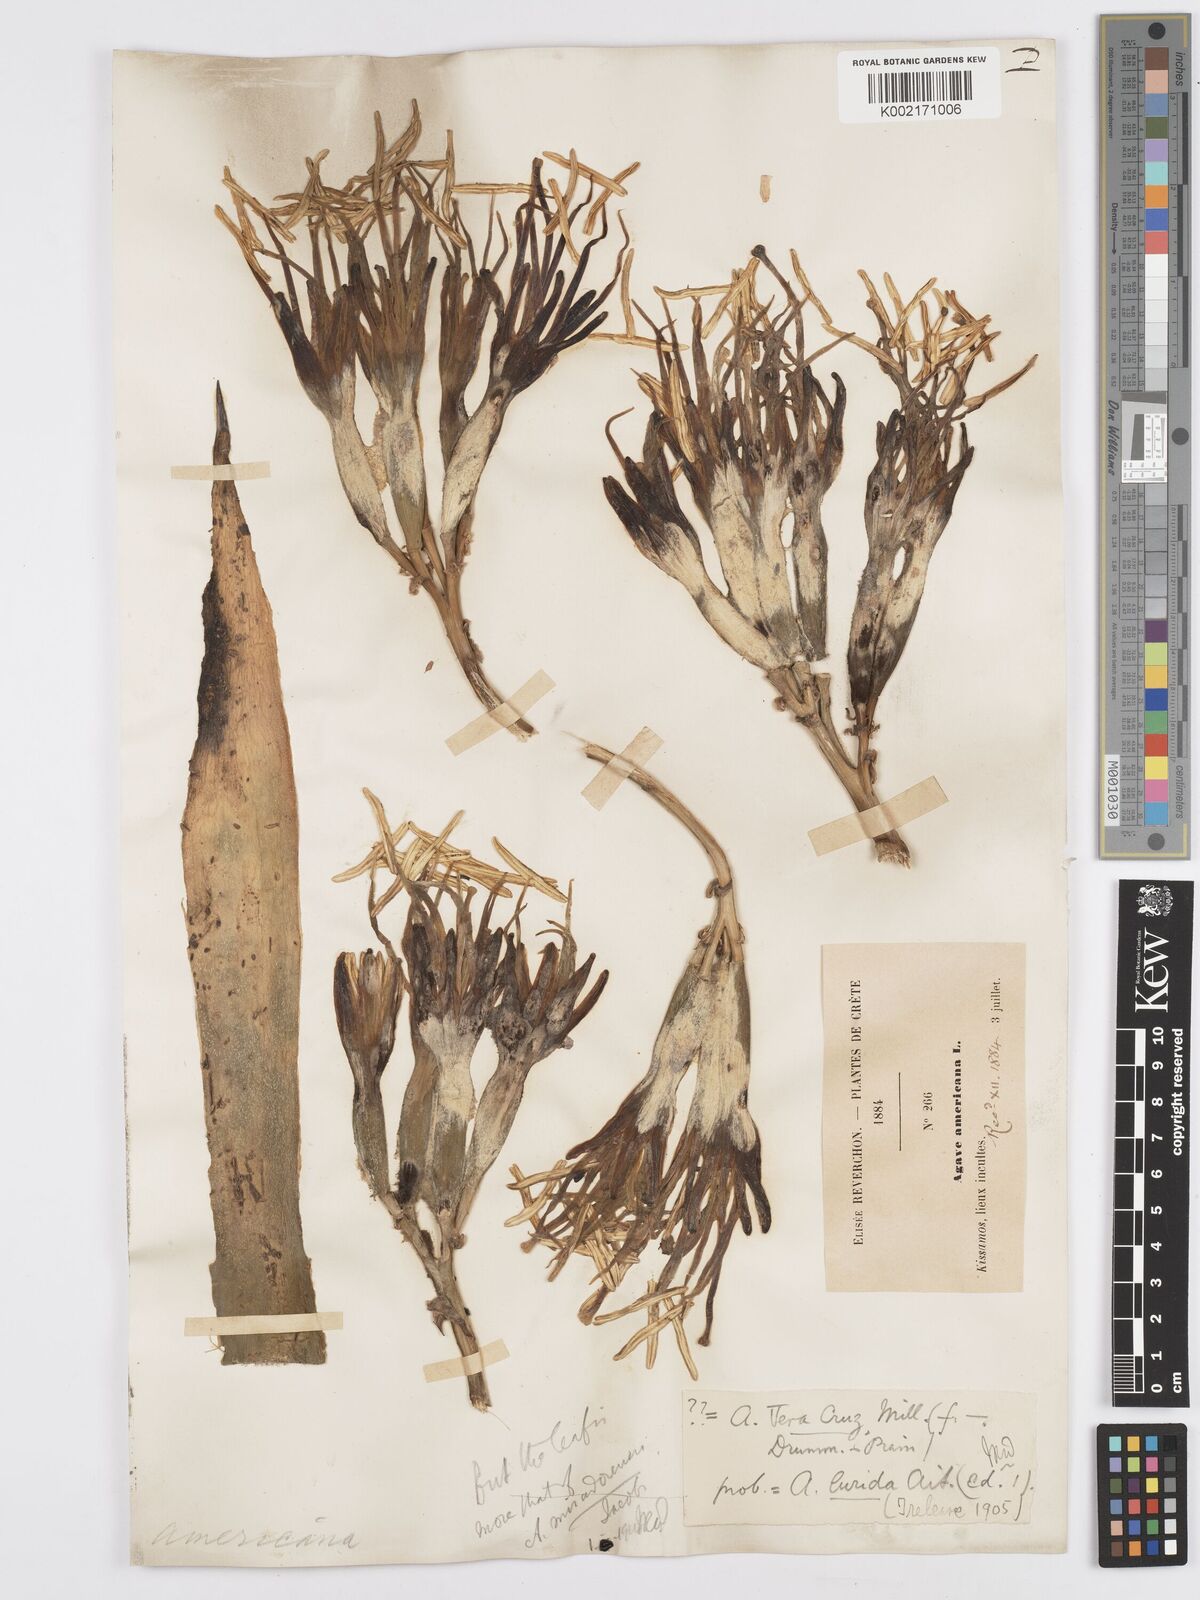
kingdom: Plantae
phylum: Tracheophyta
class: Liliopsida
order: Asparagales
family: Asparagaceae
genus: Agave
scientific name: Agave americana
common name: Centuryplant
